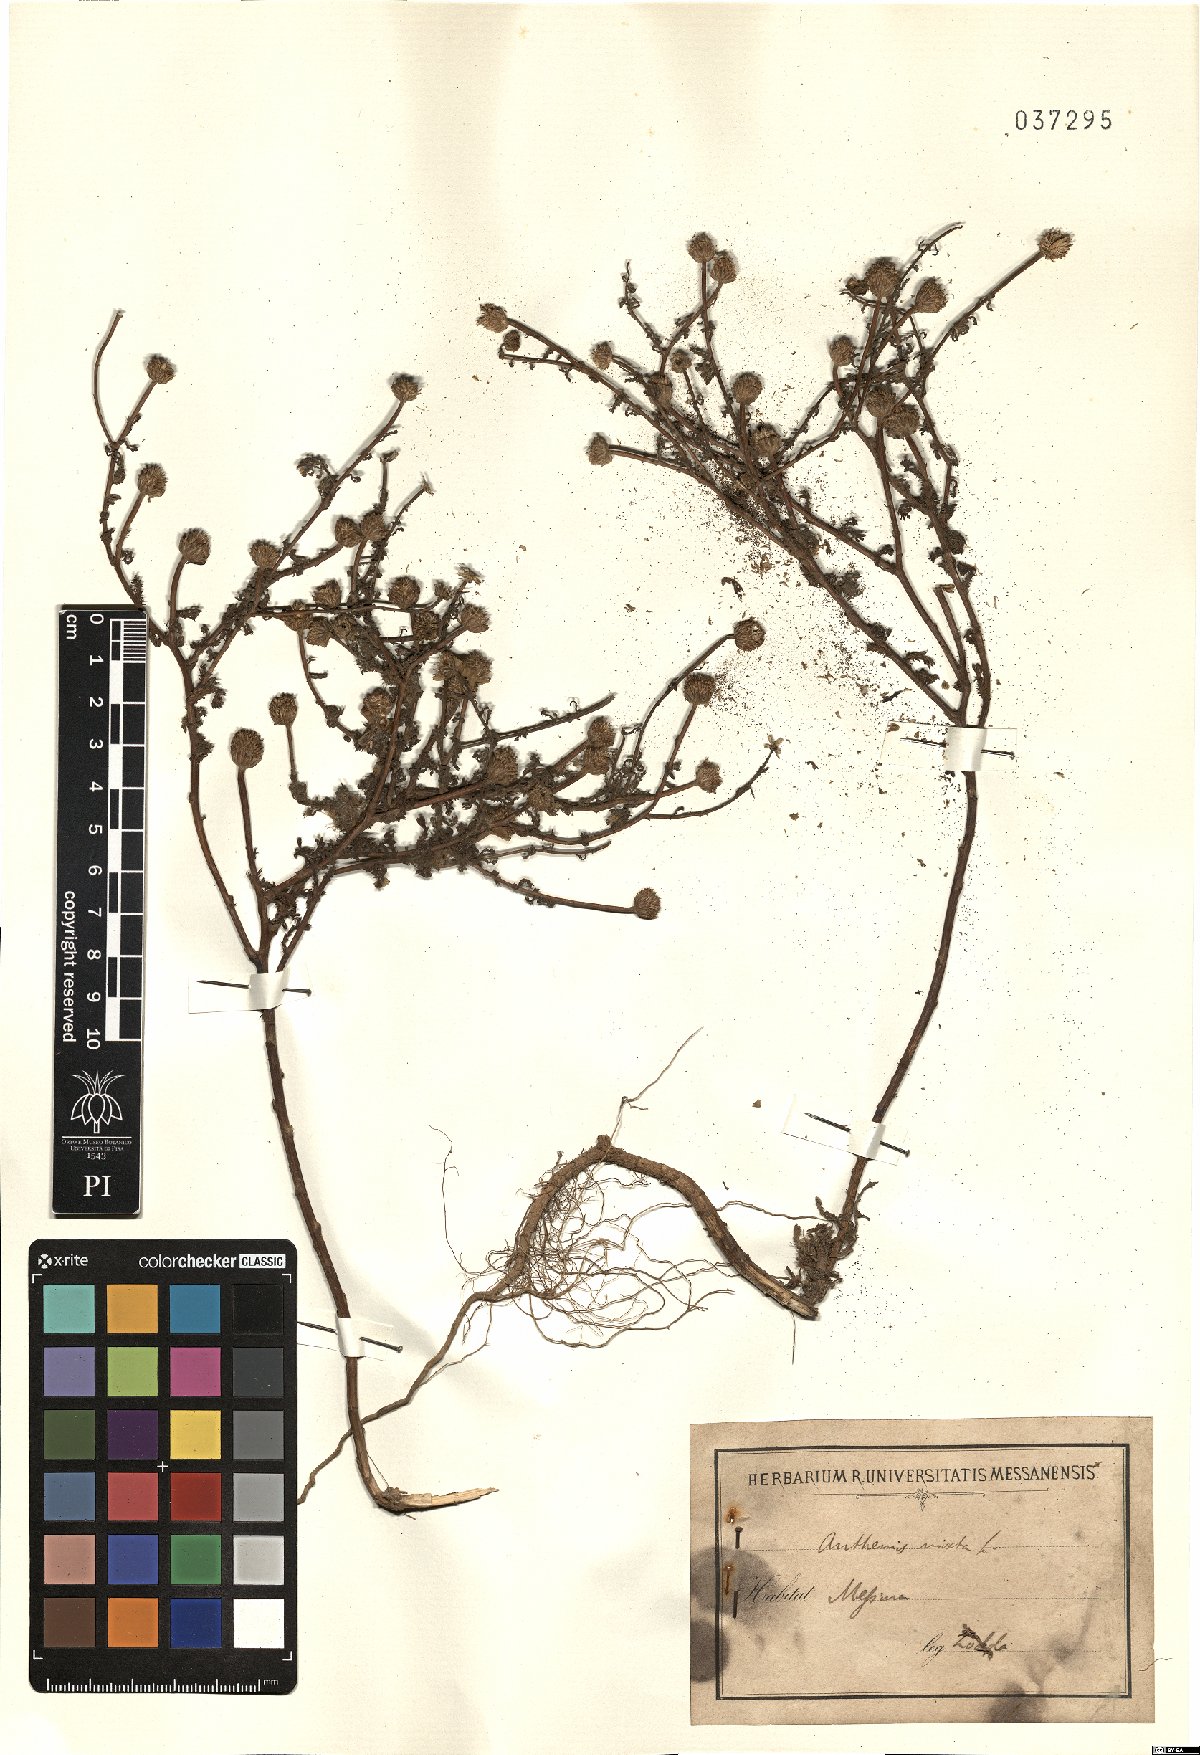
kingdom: Plantae
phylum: Tracheophyta
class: Magnoliopsida
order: Asterales
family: Asteraceae
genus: Cladanthus
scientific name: Cladanthus mixtus
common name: Weedy dogfennel
